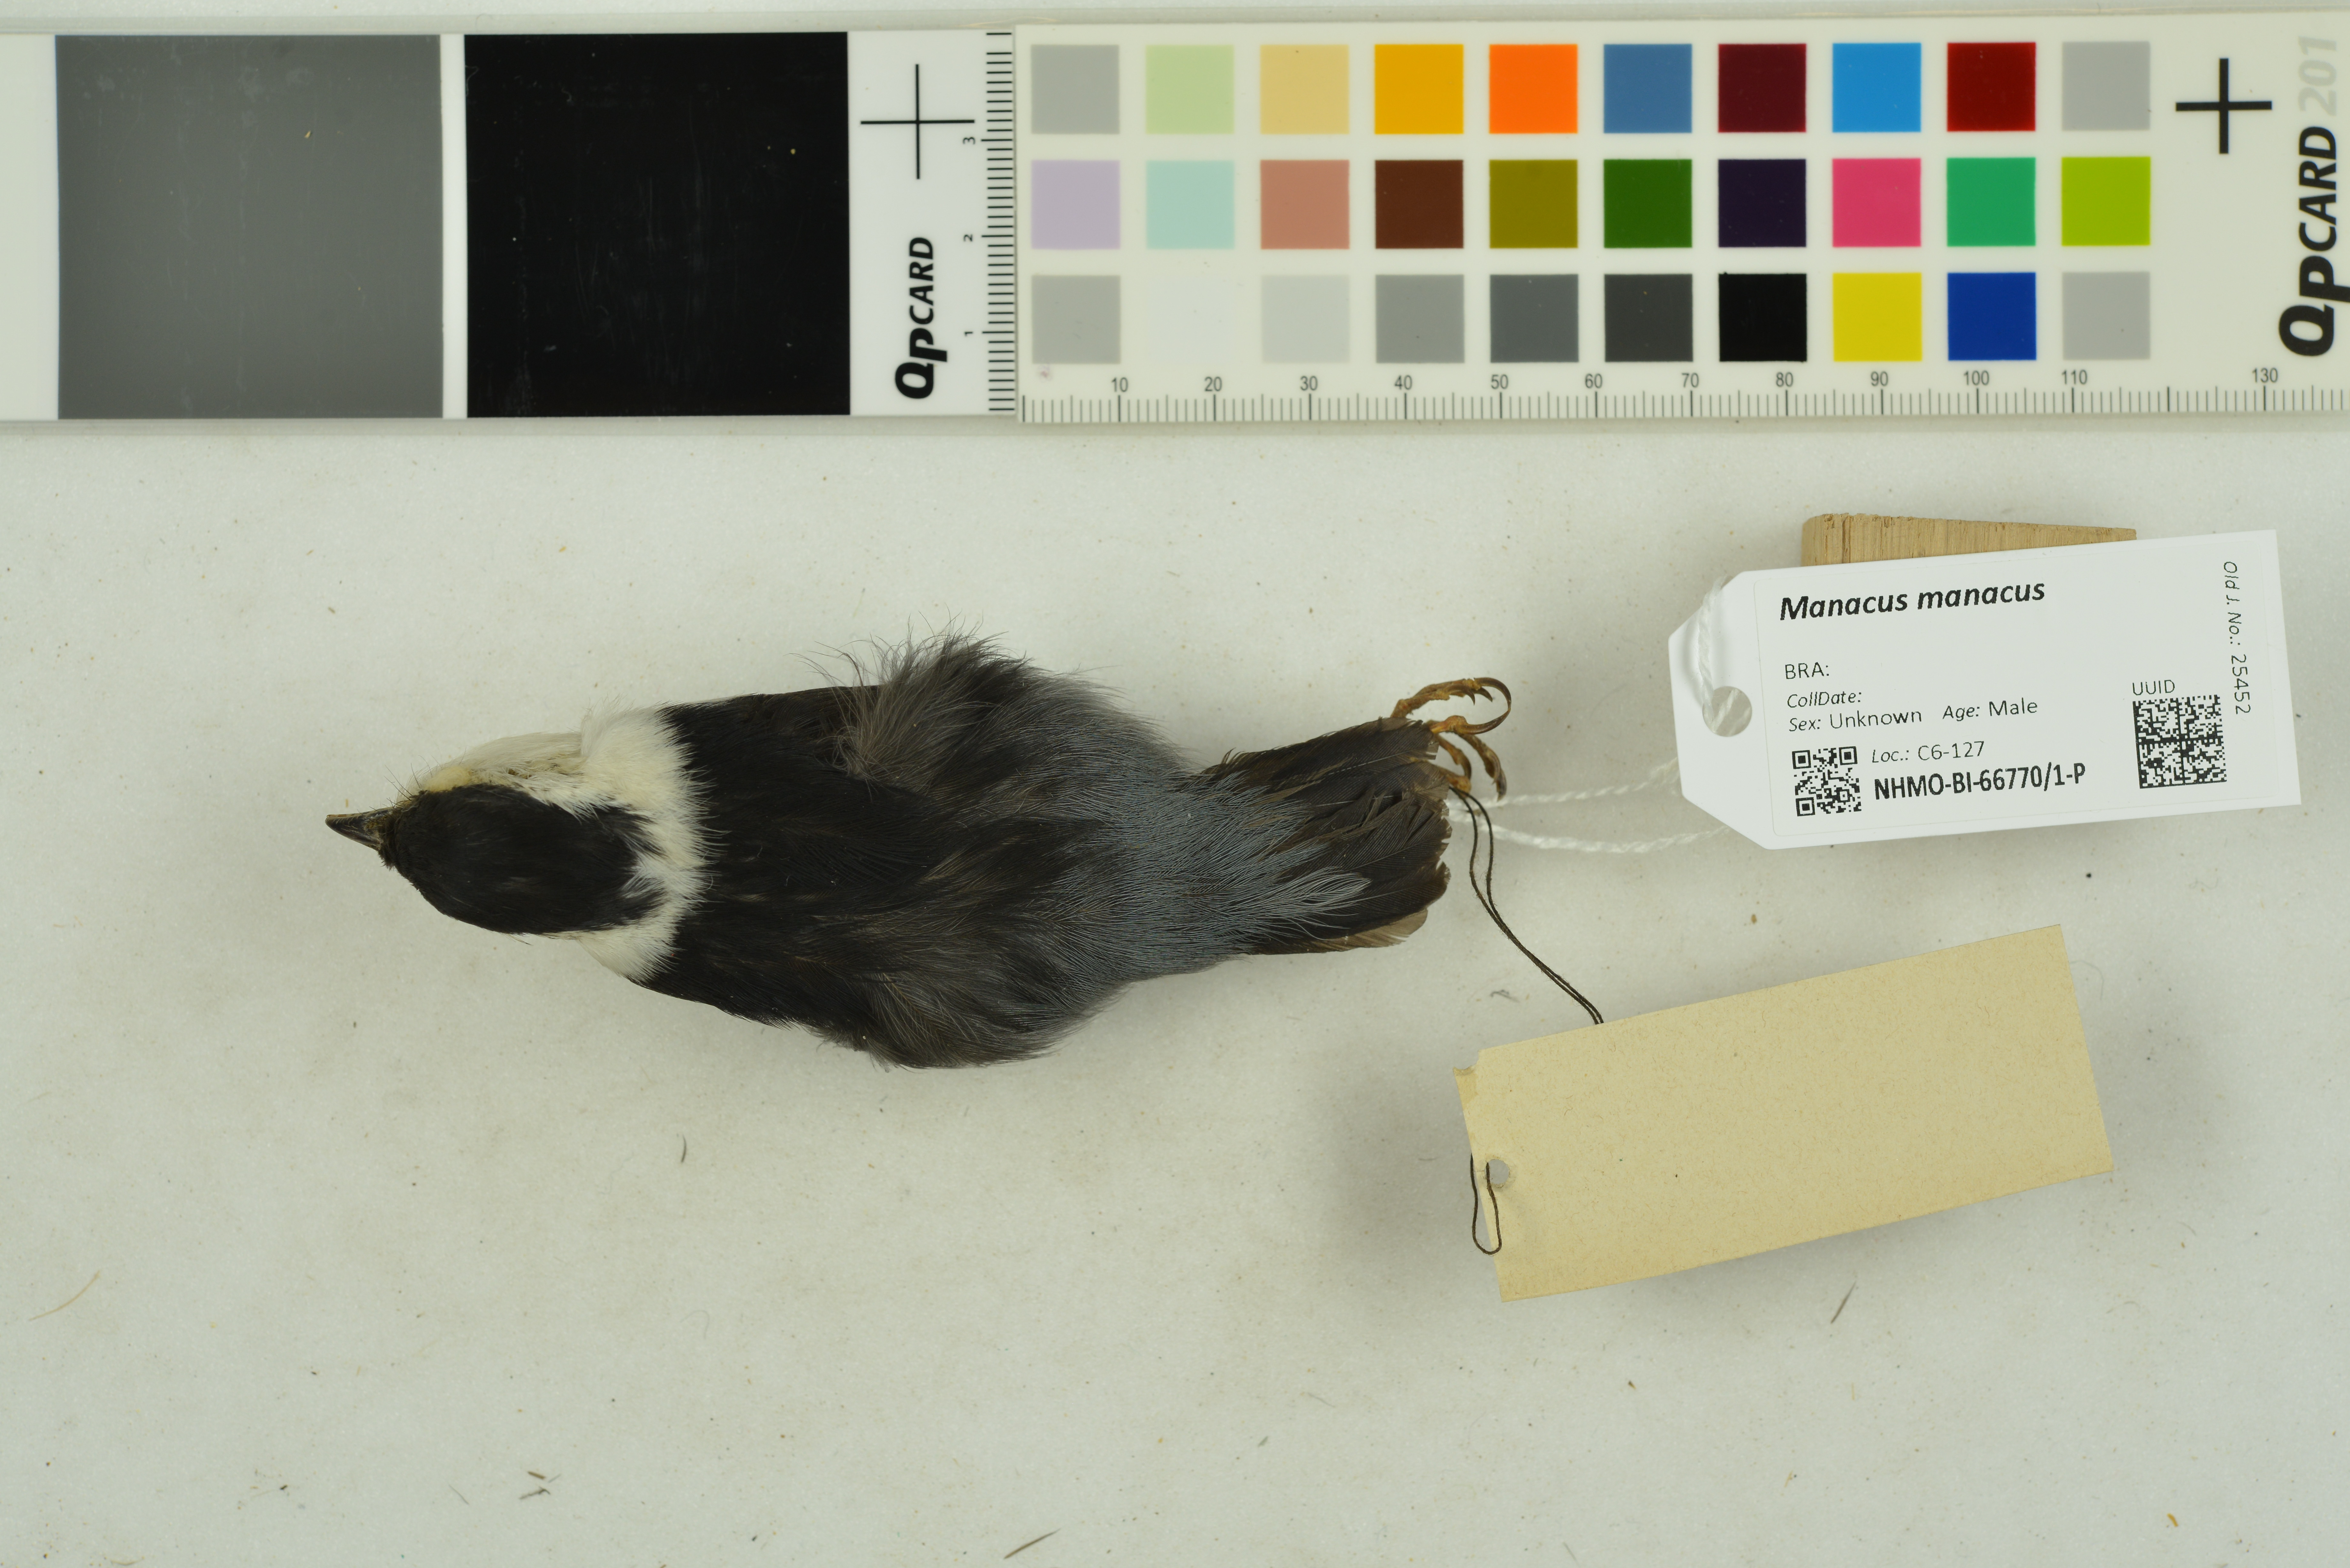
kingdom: Animalia
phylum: Chordata
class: Aves
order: Passeriformes
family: Pipridae
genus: Manacus
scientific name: Manacus manacus
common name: White-bearded manakin
